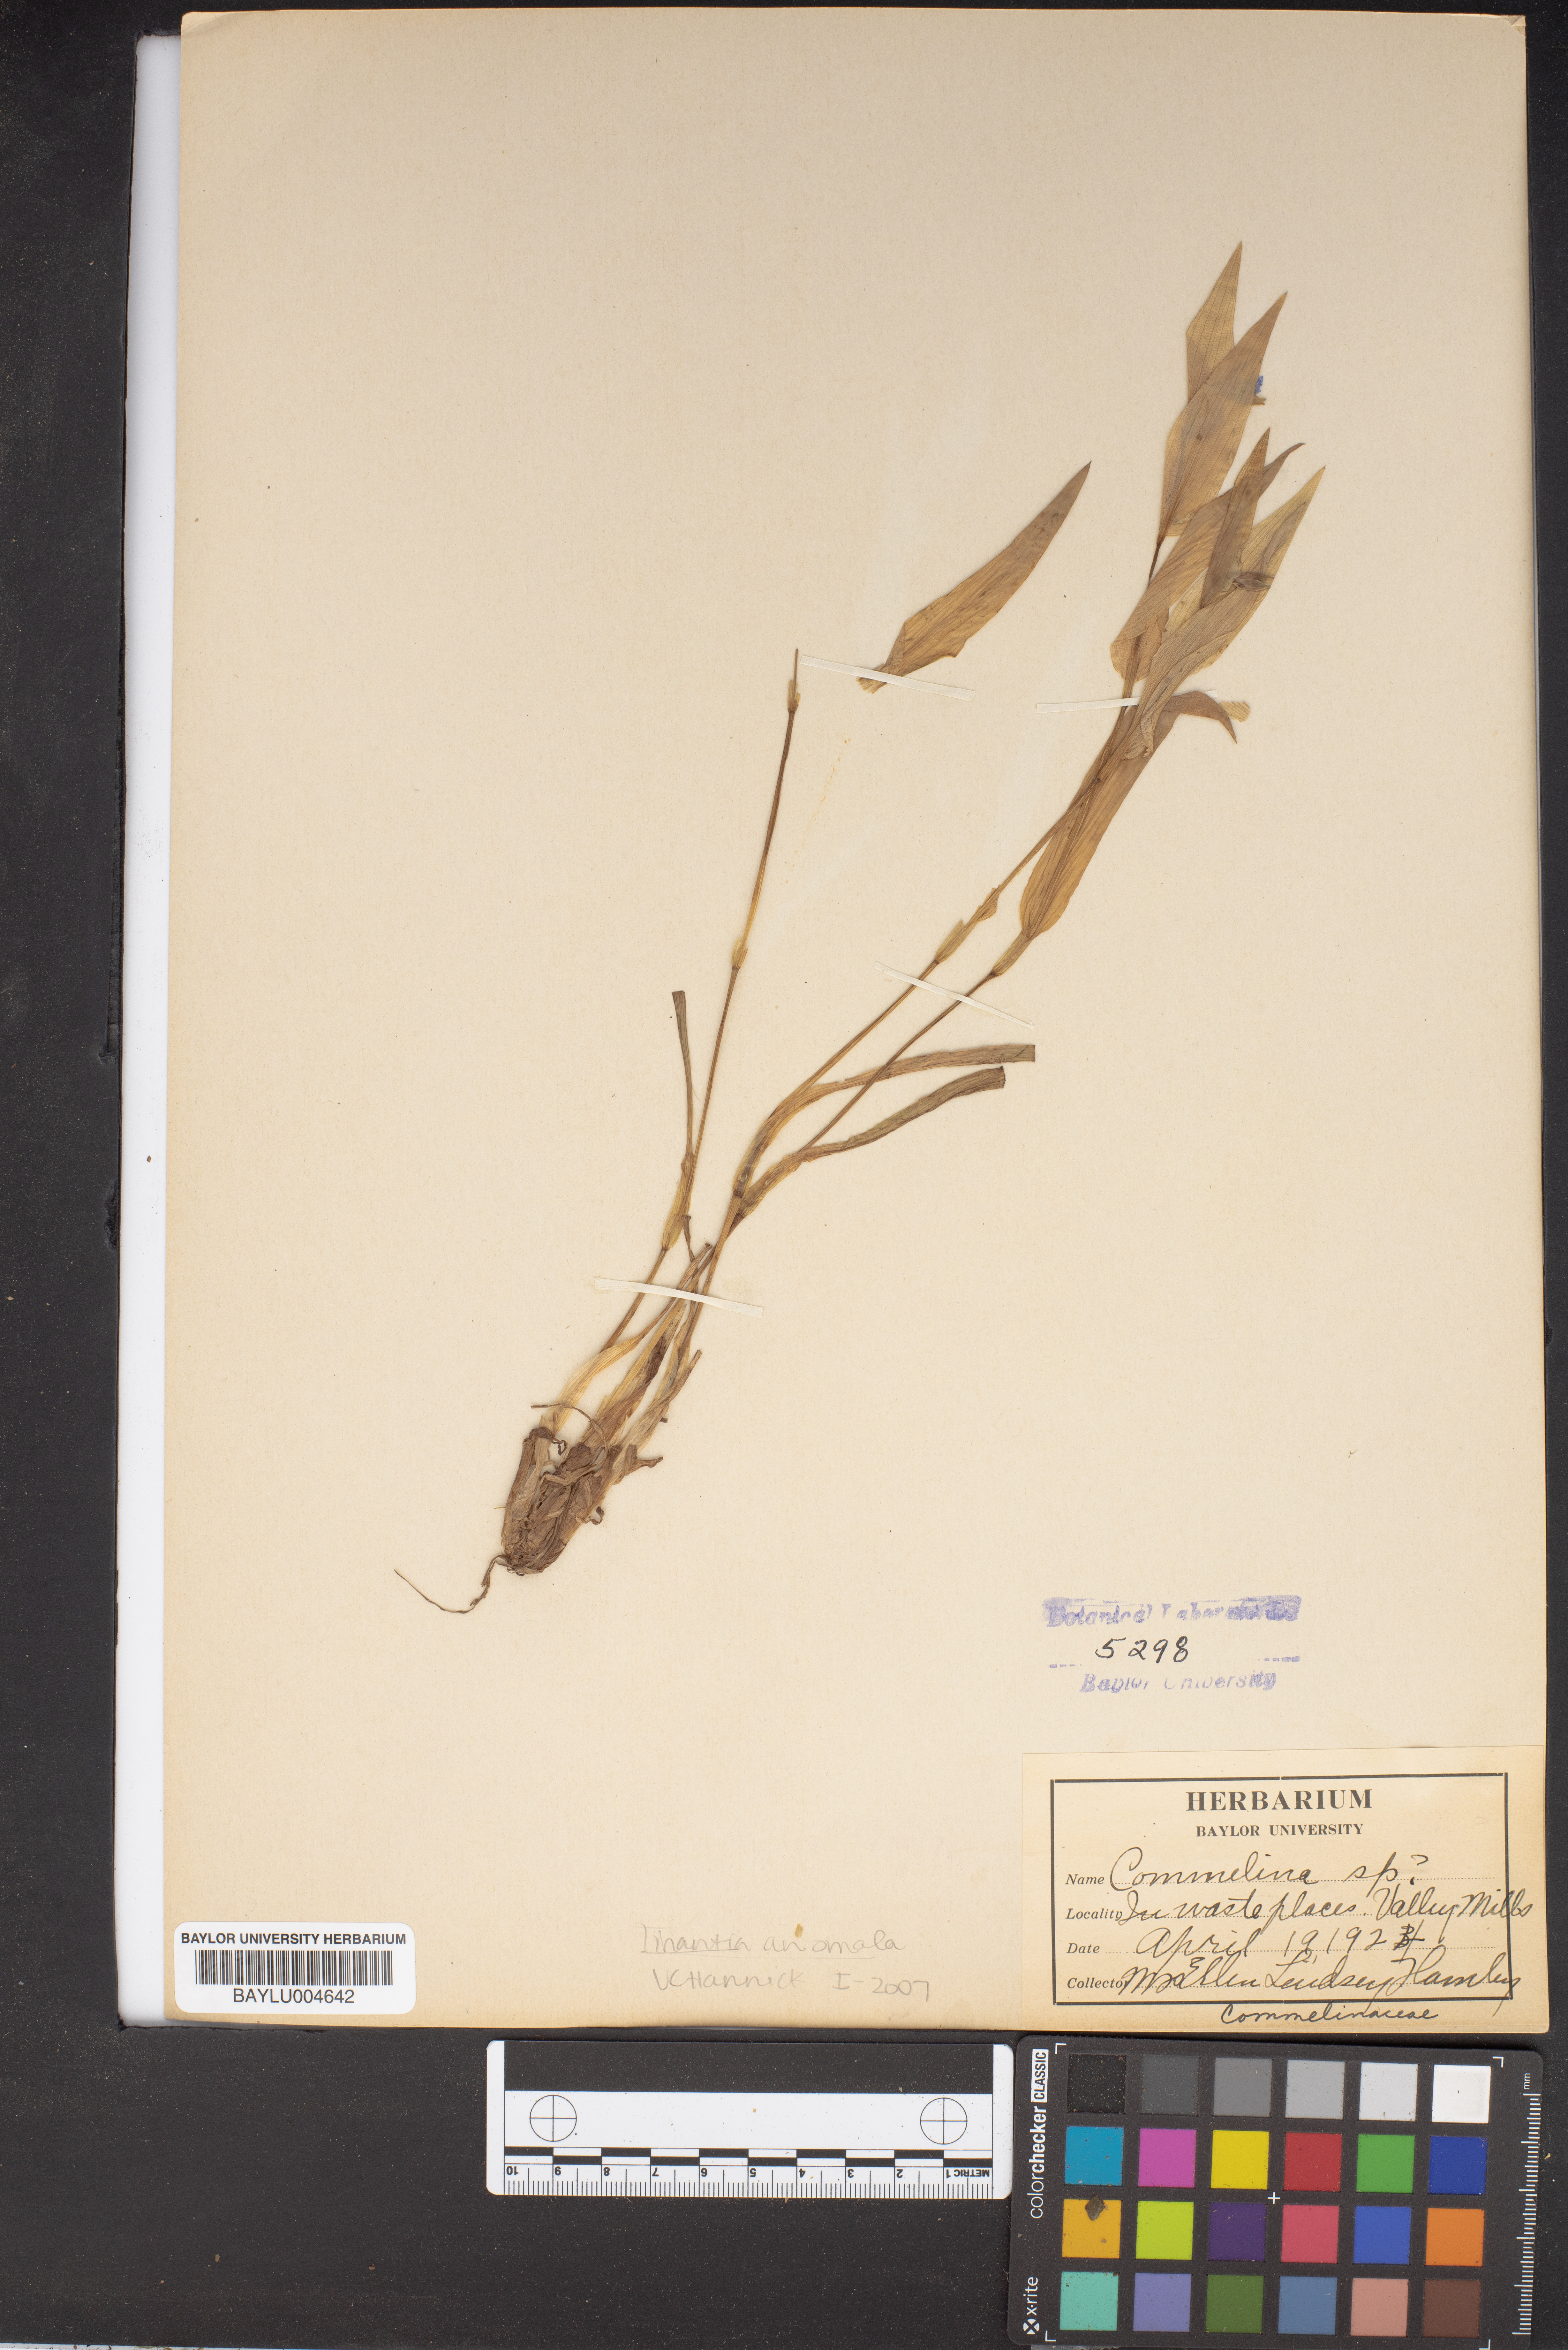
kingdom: Plantae
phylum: Tracheophyta
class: Liliopsida
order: Commelinales
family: Commelinaceae
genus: Commelina
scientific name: Commelina
